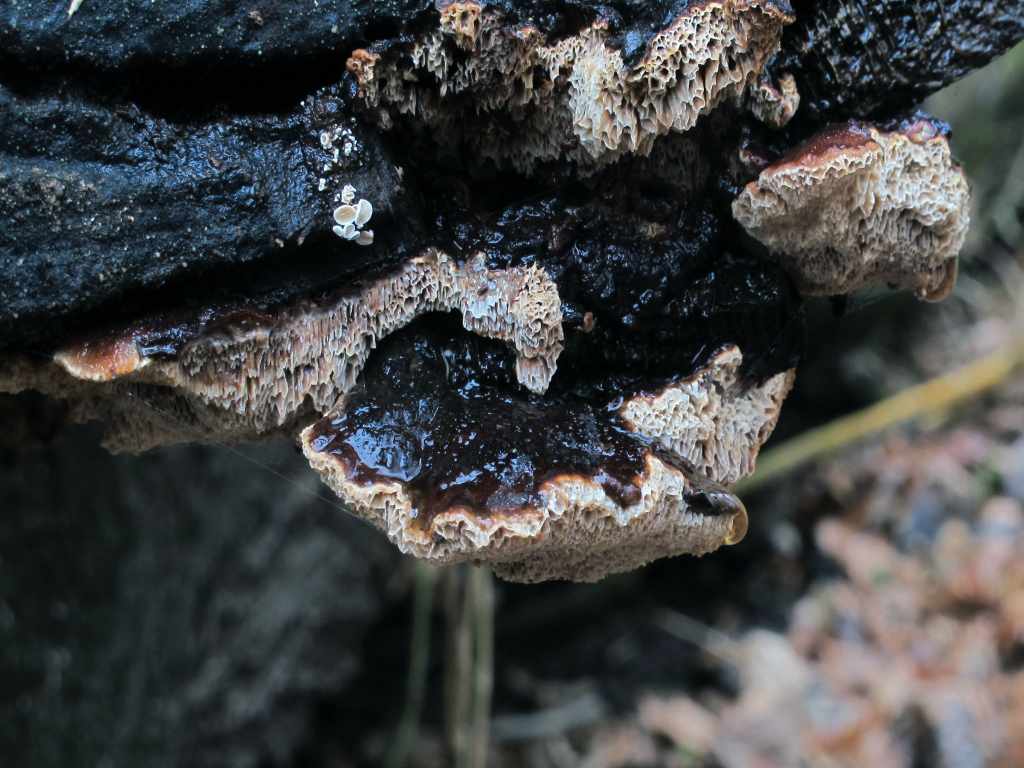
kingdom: Fungi
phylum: Basidiomycota
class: Agaricomycetes
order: Polyporales
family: Polyporaceae
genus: Podofomes
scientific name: Podofomes mollis
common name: blød begporesvamp
